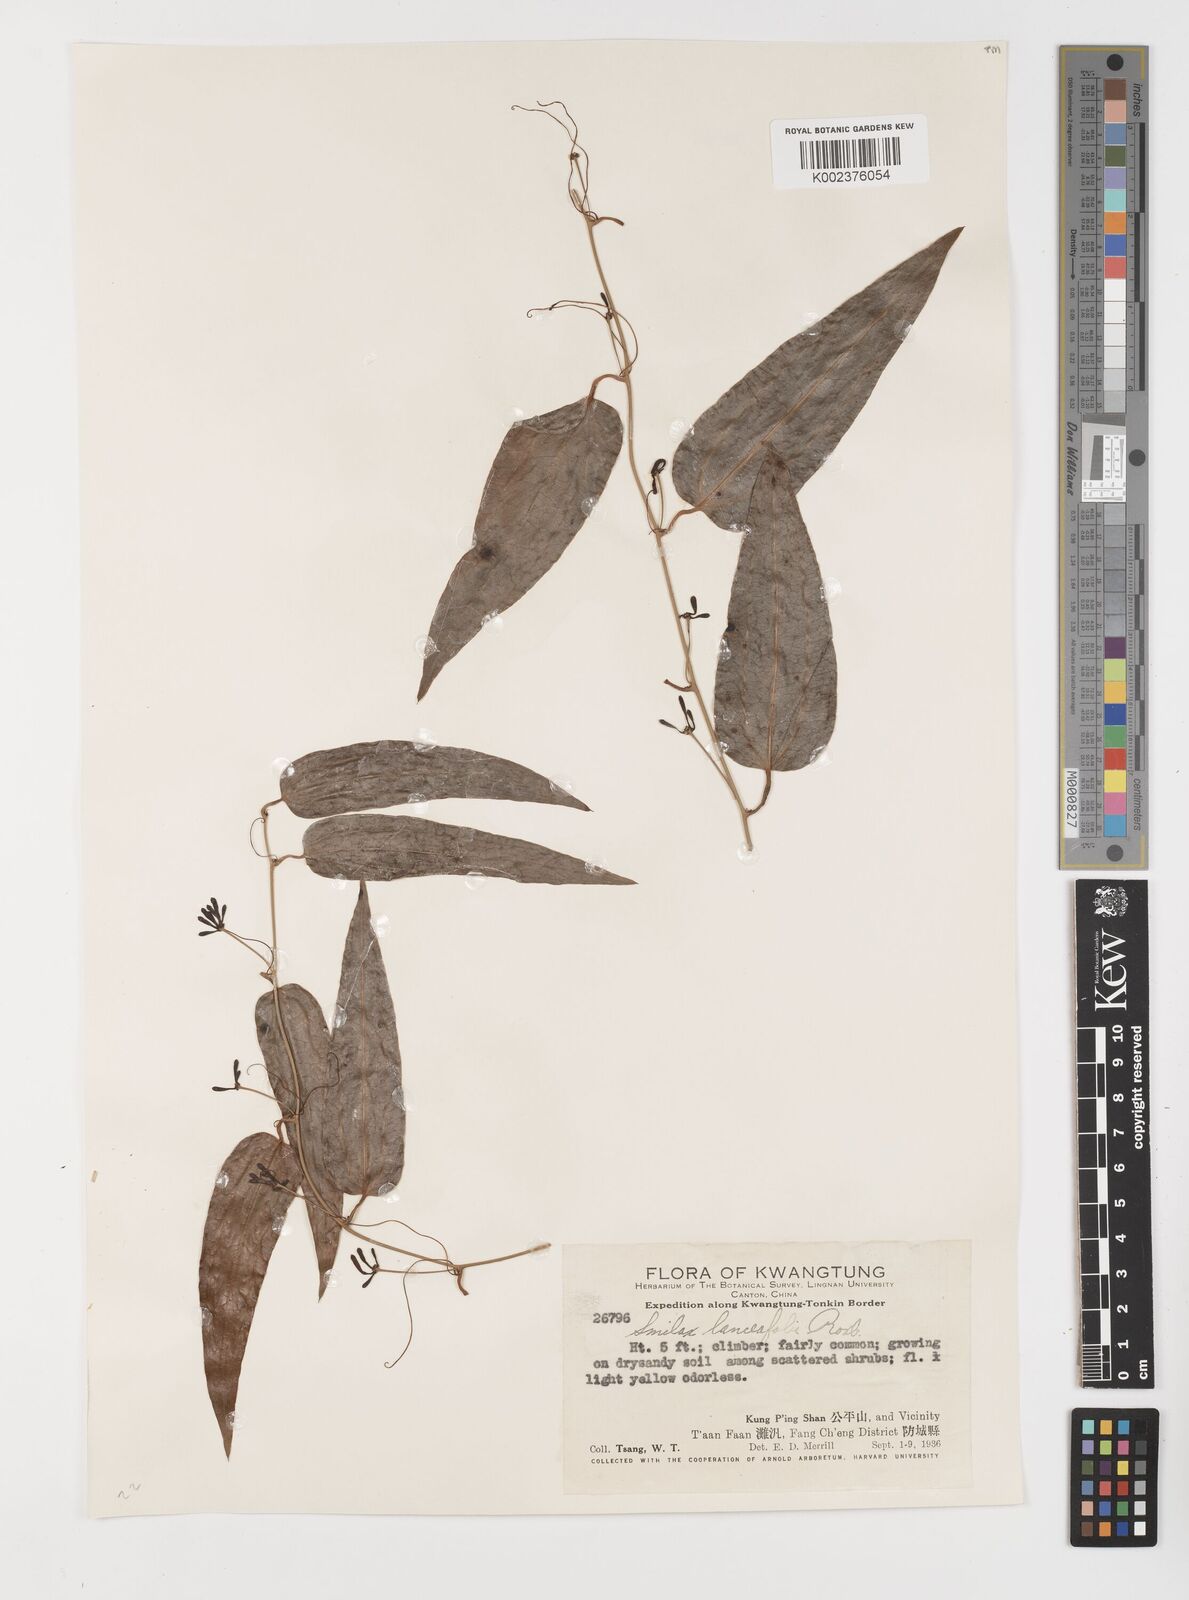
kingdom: Plantae
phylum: Tracheophyta
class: Liliopsida
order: Liliales
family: Smilacaceae
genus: Smilax
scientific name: Smilax lanceifolia
